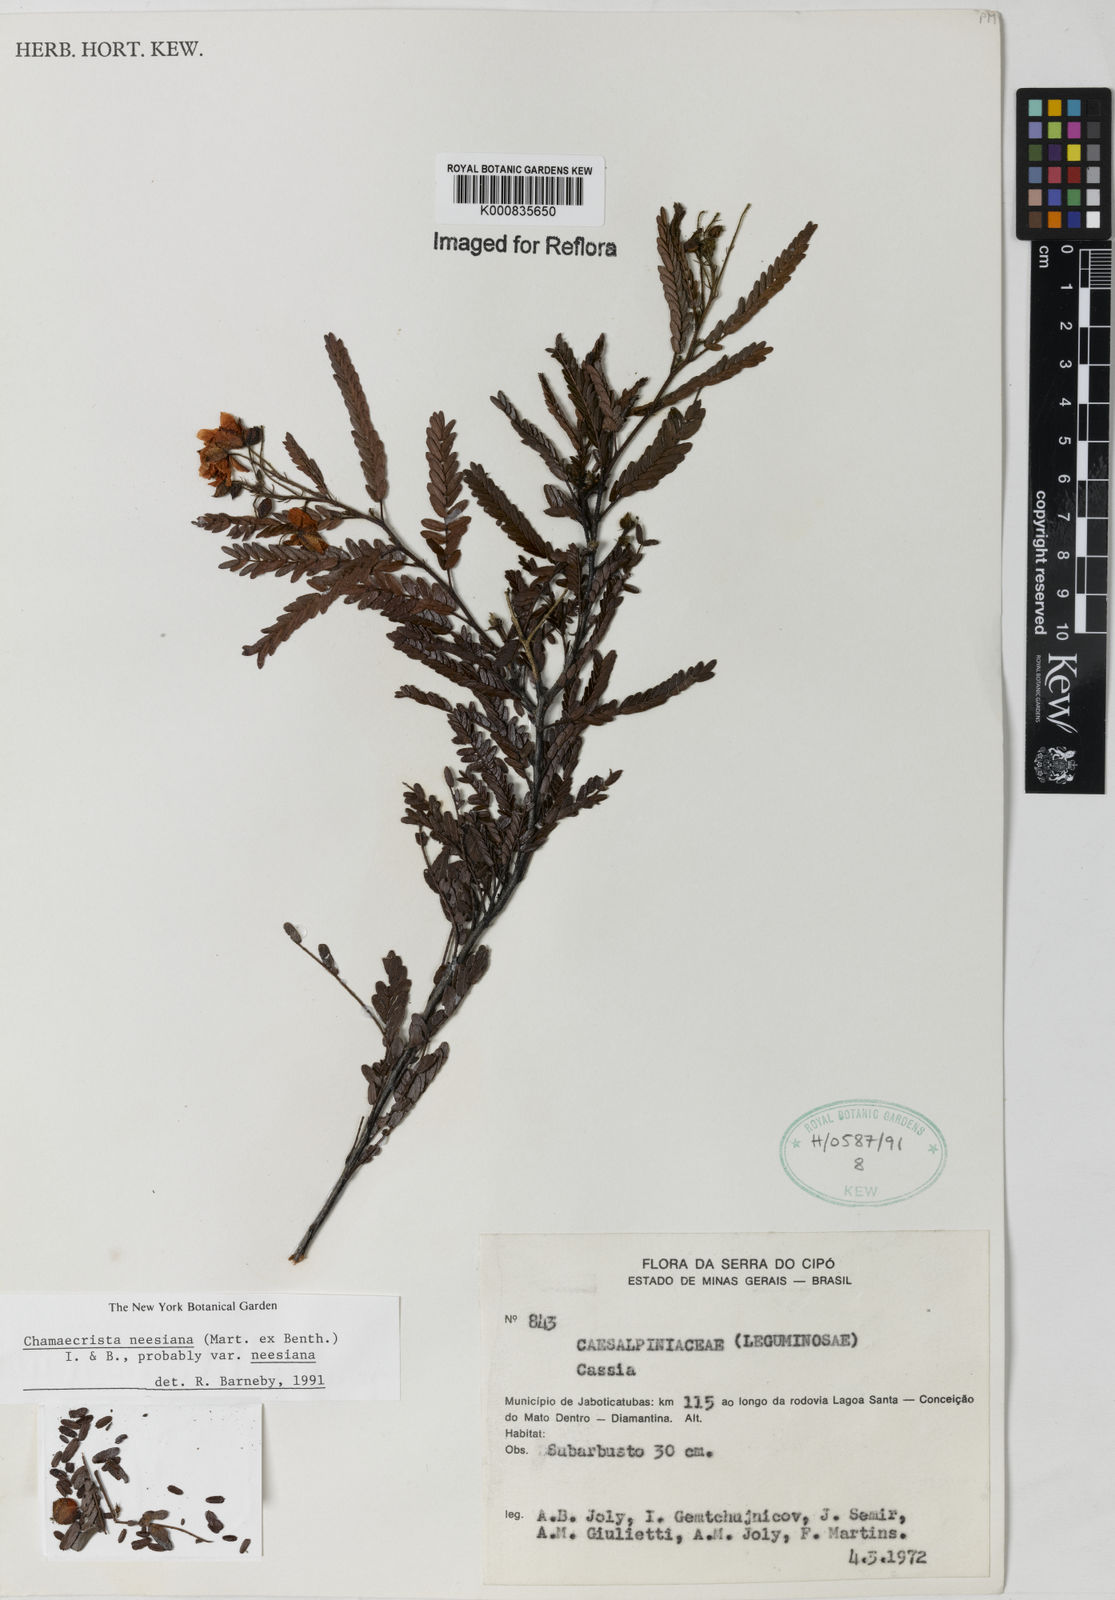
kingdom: Plantae
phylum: Tracheophyta
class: Magnoliopsida
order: Fabales
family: Fabaceae
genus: Chamaecrista
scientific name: Chamaecrista neesiana
